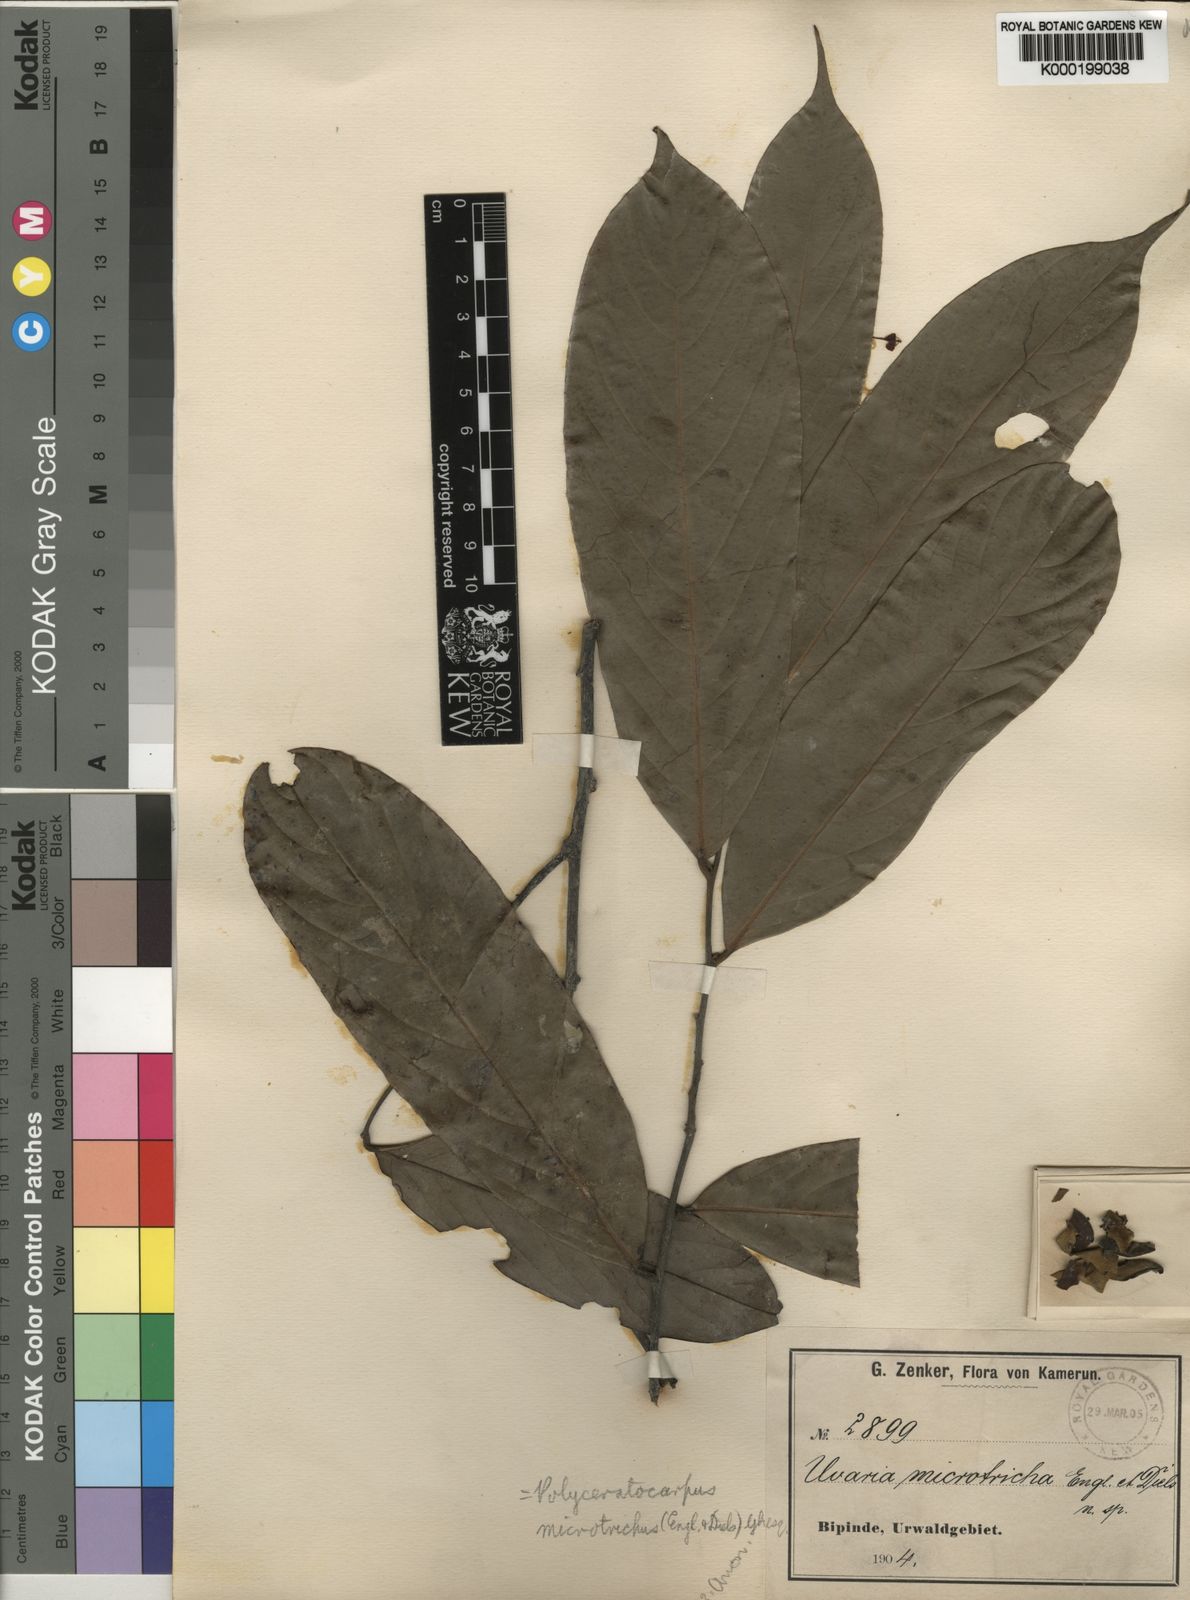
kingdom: Plantae
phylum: Tracheophyta
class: Magnoliopsida
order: Magnoliales
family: Annonaceae
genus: Polyceratocarpus
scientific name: Polyceratocarpus microtrichus
